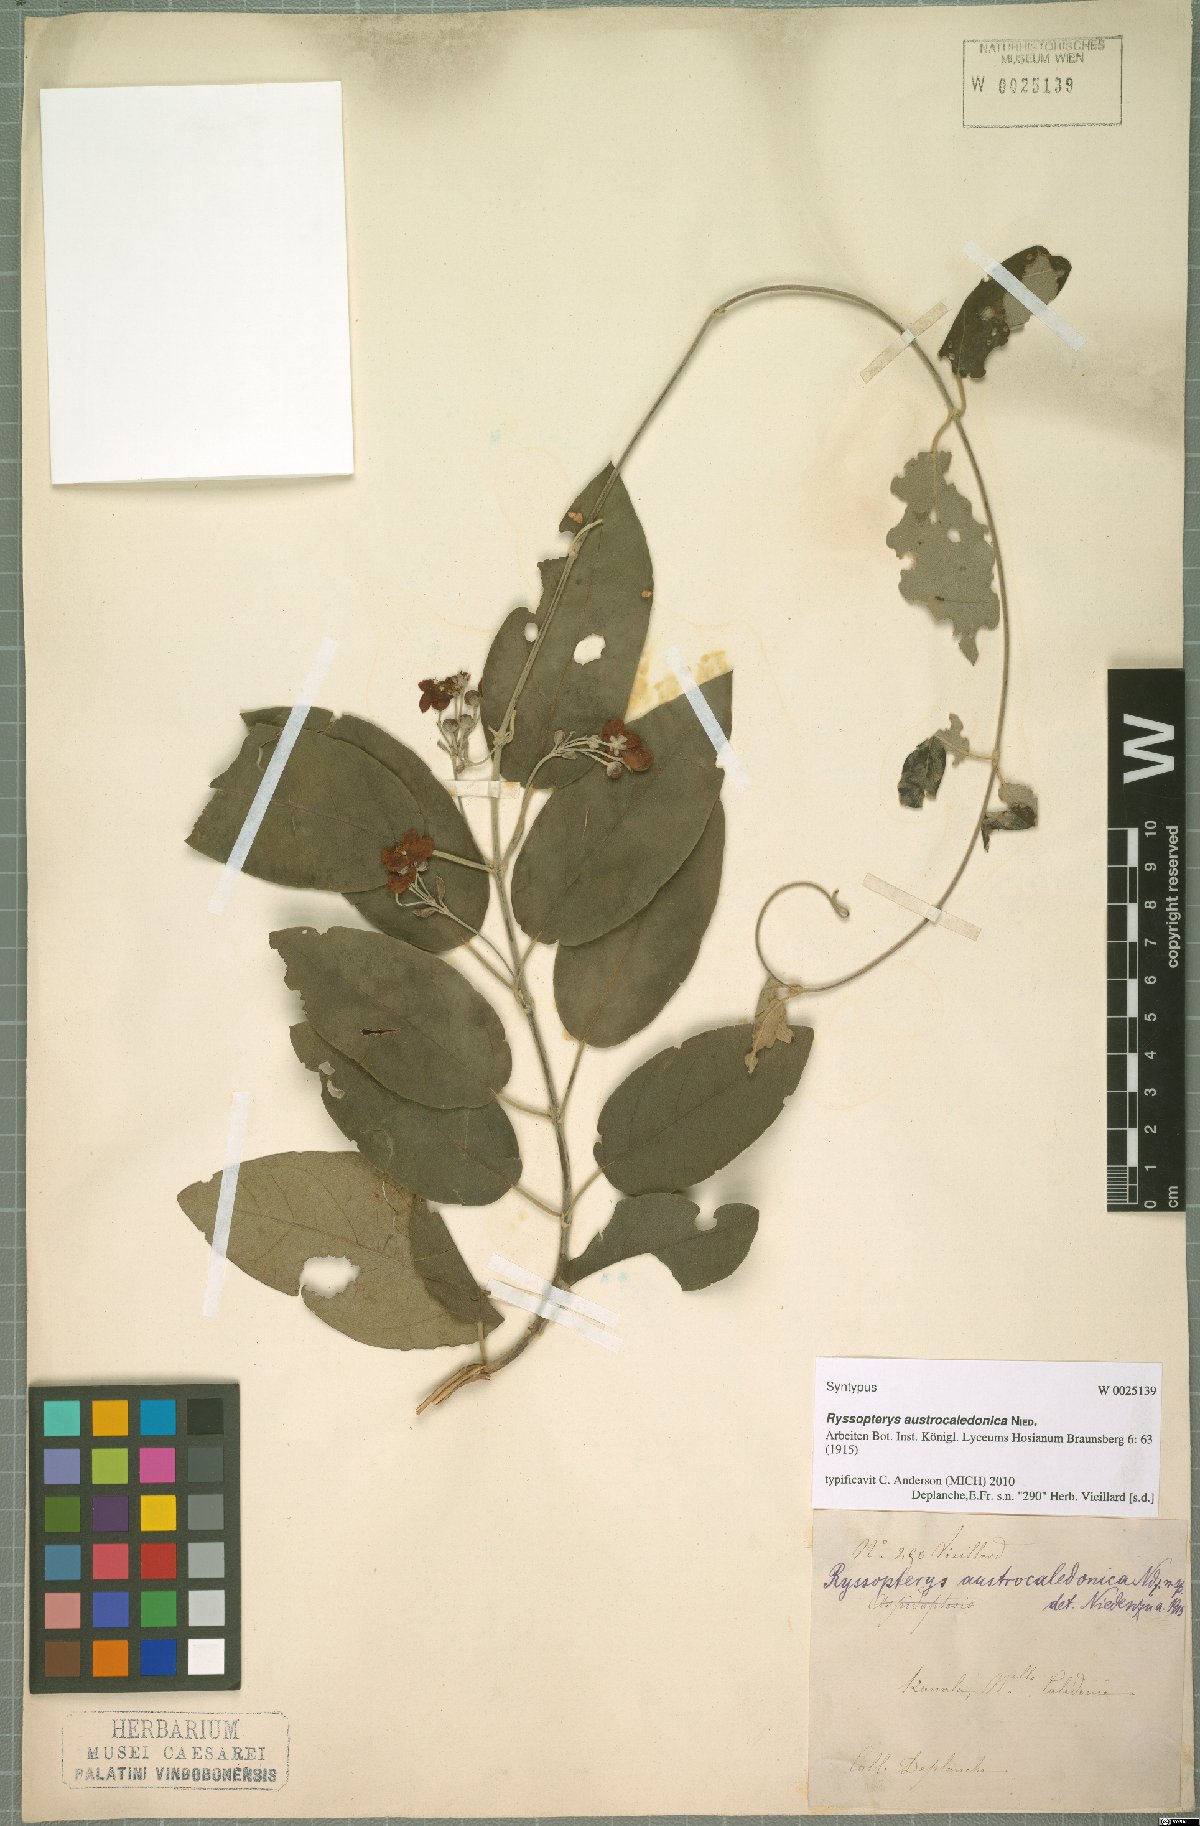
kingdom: Plantae
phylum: Tracheophyta
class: Magnoliopsida
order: Malpighiales
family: Malpighiaceae
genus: Stigmaphyllon
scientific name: Stigmaphyllon discolor
